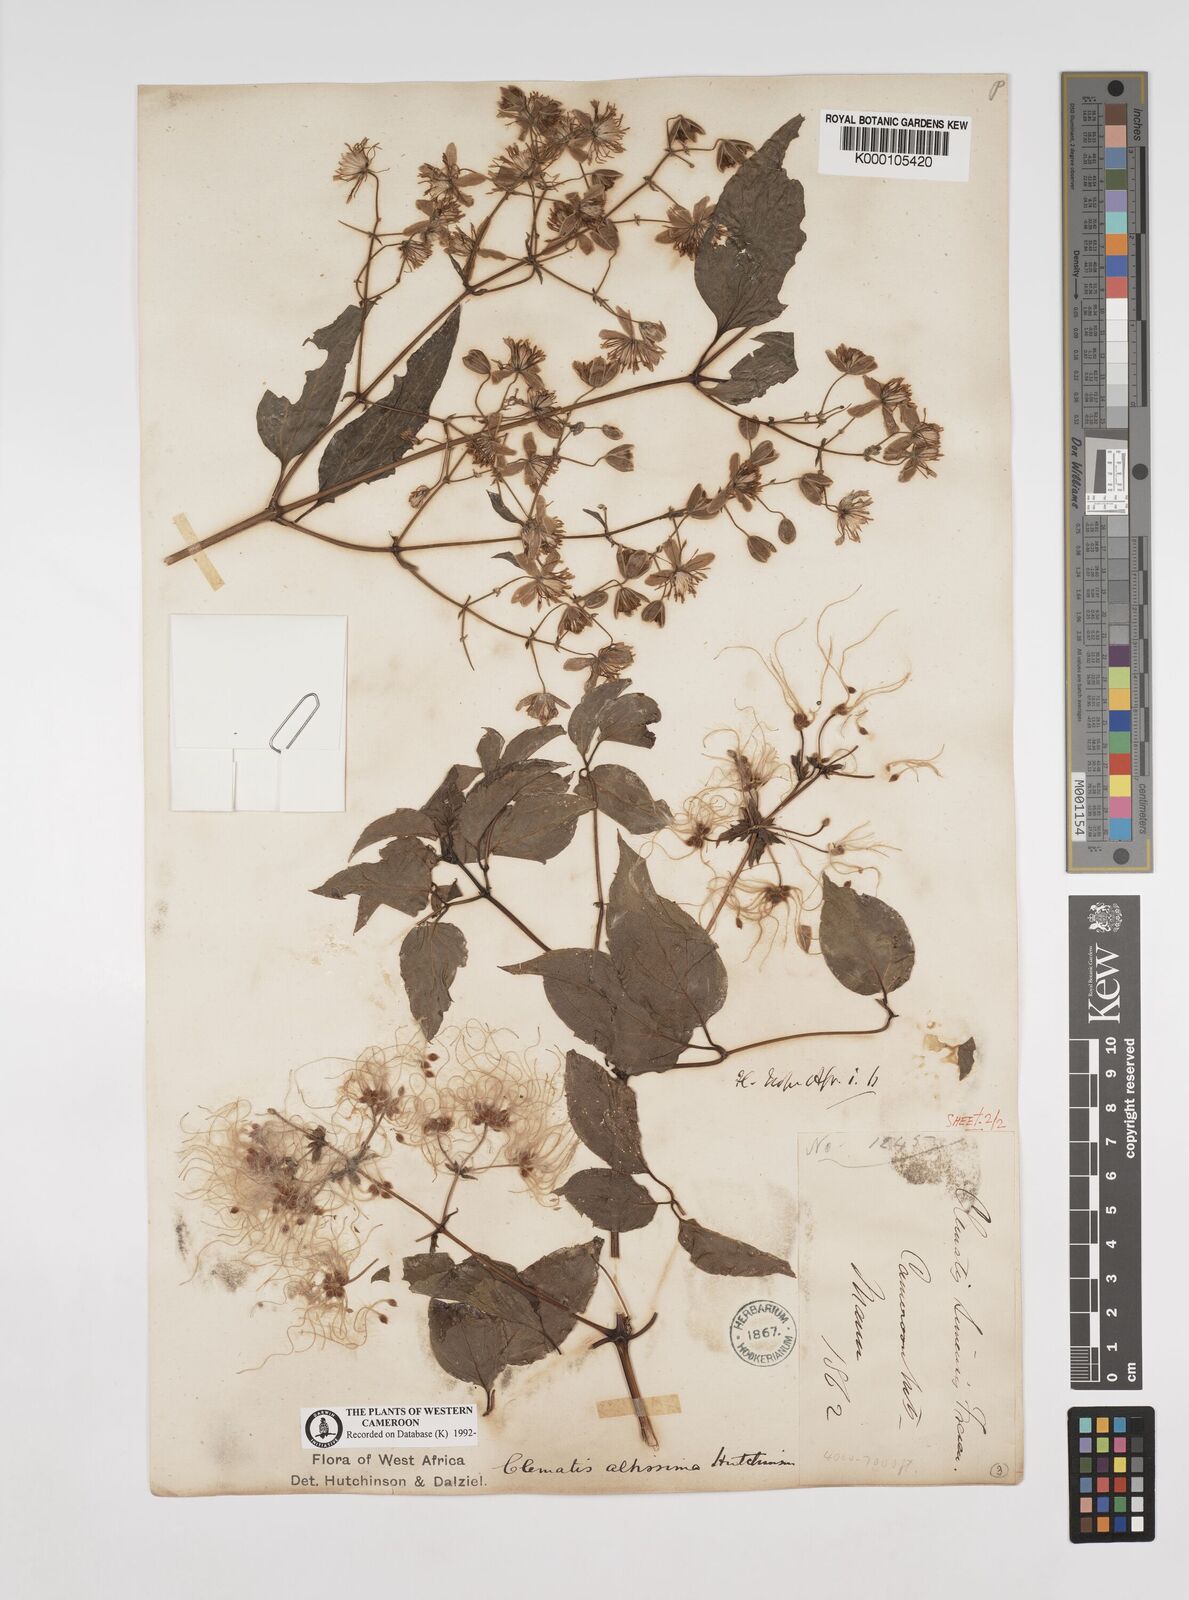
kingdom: Plantae
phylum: Tracheophyta
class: Magnoliopsida
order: Ranunculales
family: Ranunculaceae
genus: Clematis
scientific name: Clematis simensis
